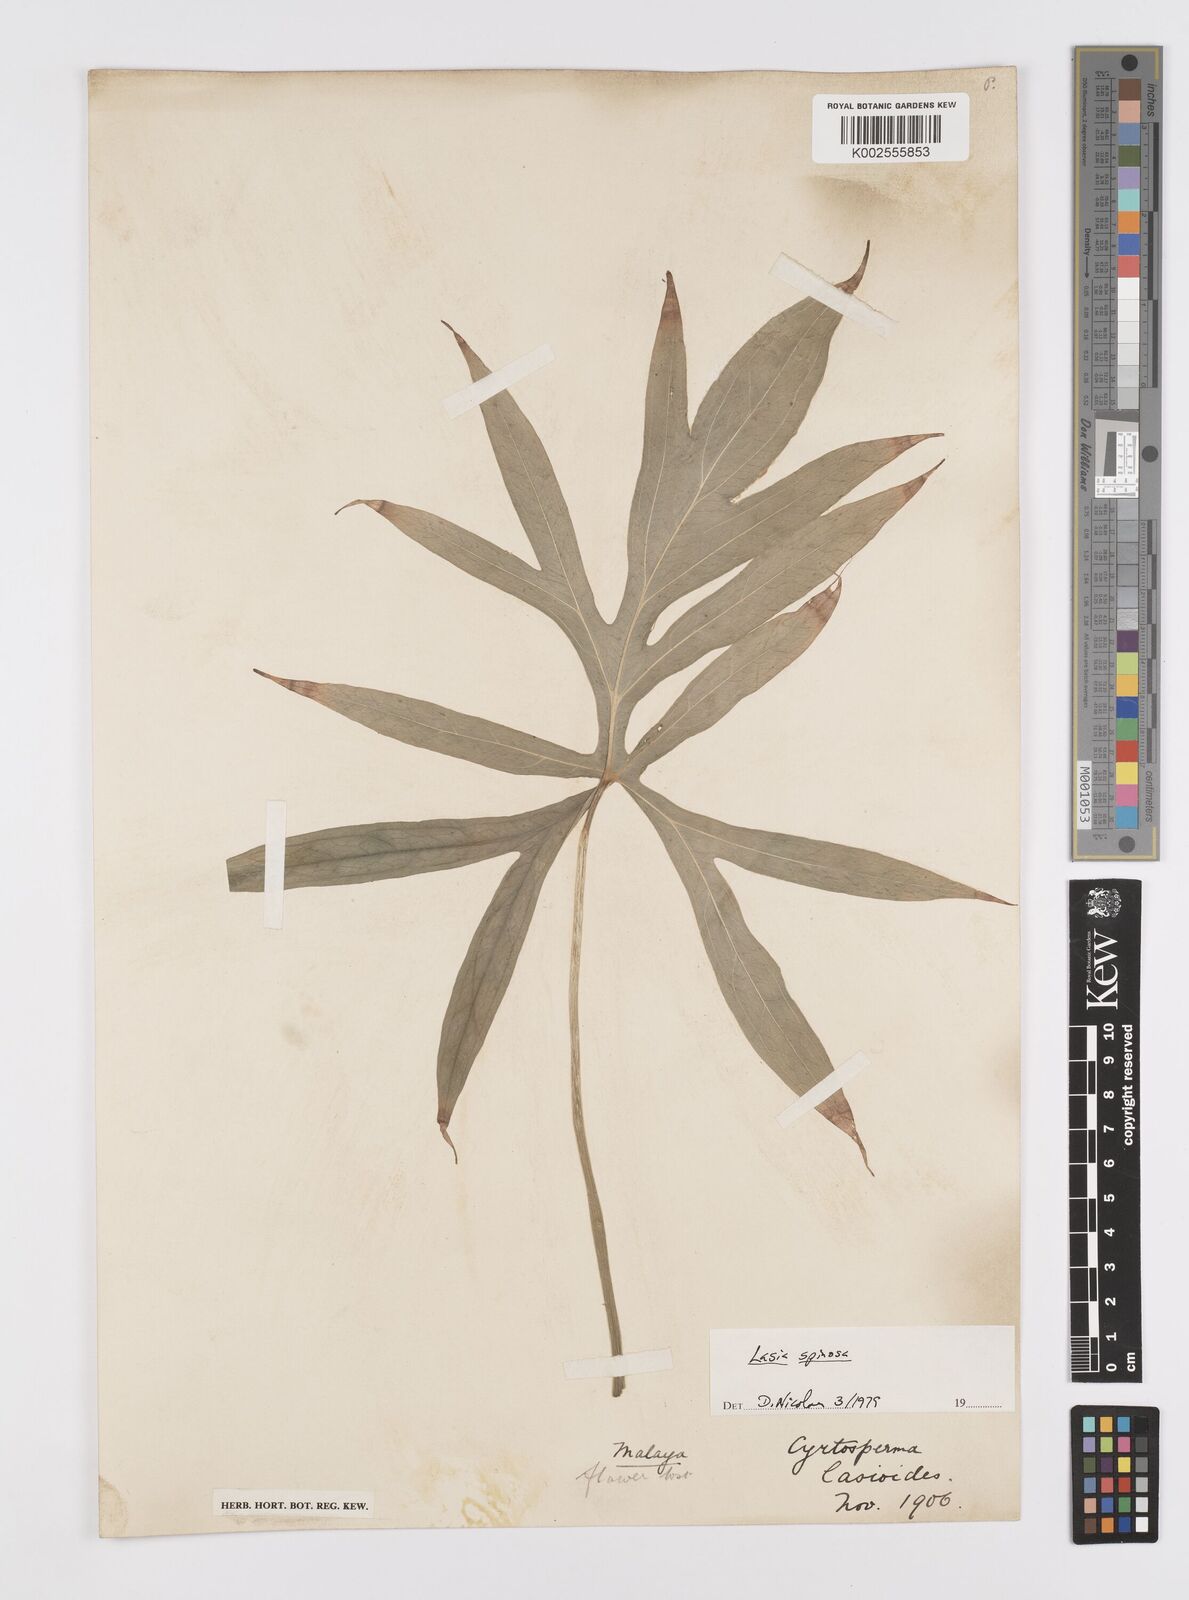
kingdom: Plantae
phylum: Tracheophyta
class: Liliopsida
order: Alismatales
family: Araceae
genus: Lasia
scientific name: Lasia spinosa
